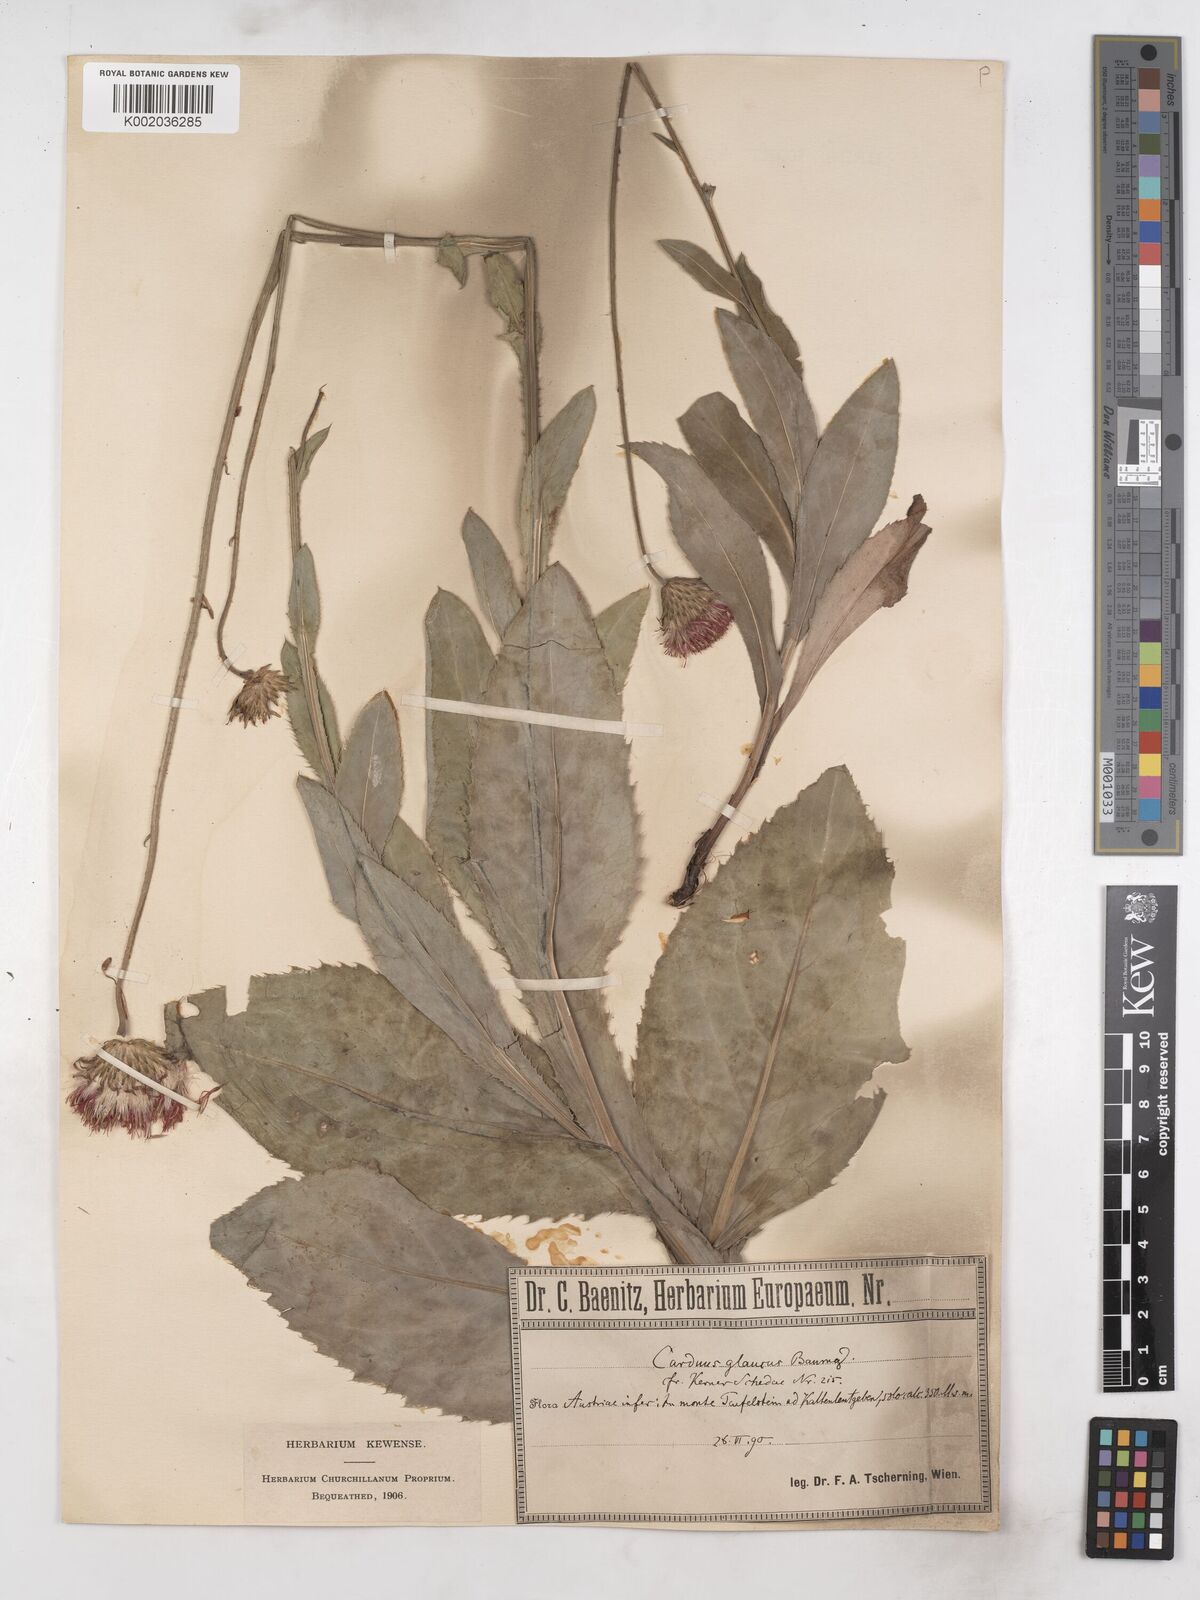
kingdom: Plantae
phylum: Tracheophyta
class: Magnoliopsida
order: Asterales
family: Asteraceae
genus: Carduus
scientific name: Carduus defloratus
